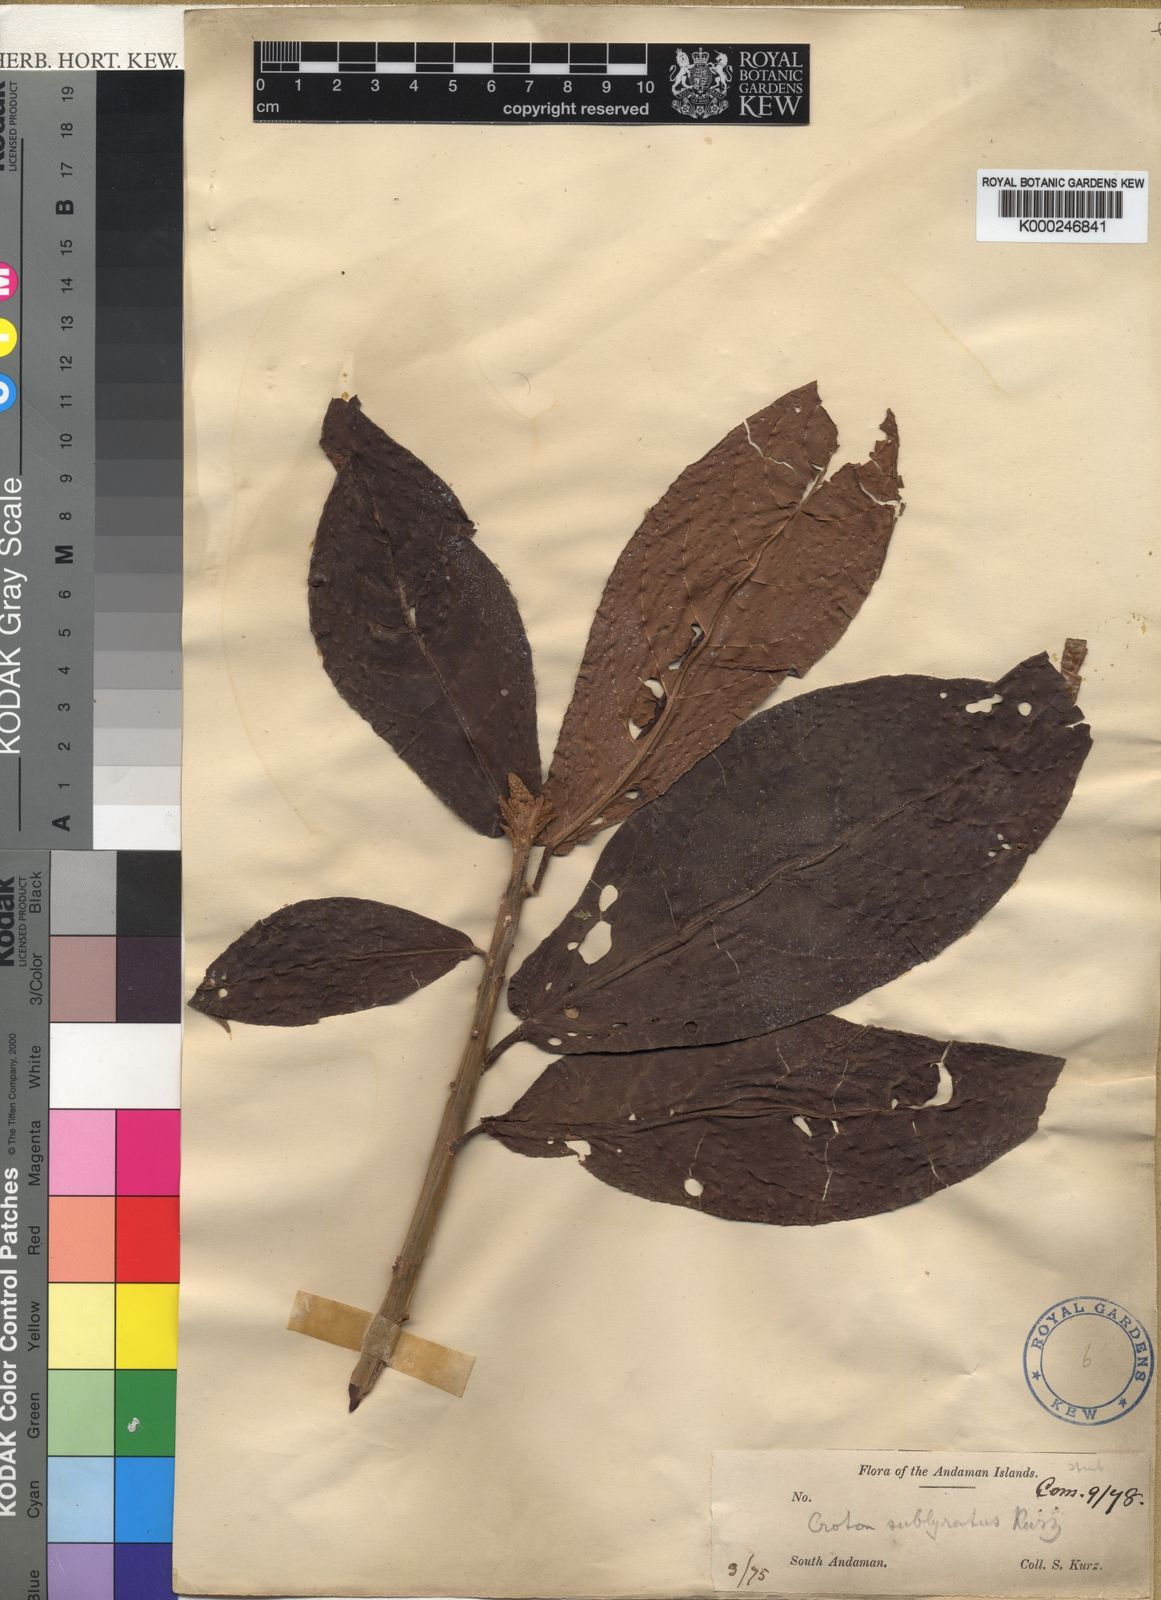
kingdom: Plantae
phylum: Tracheophyta
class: Magnoliopsida
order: Malpighiales
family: Euphorbiaceae
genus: Croton
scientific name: Croton sublyratus
